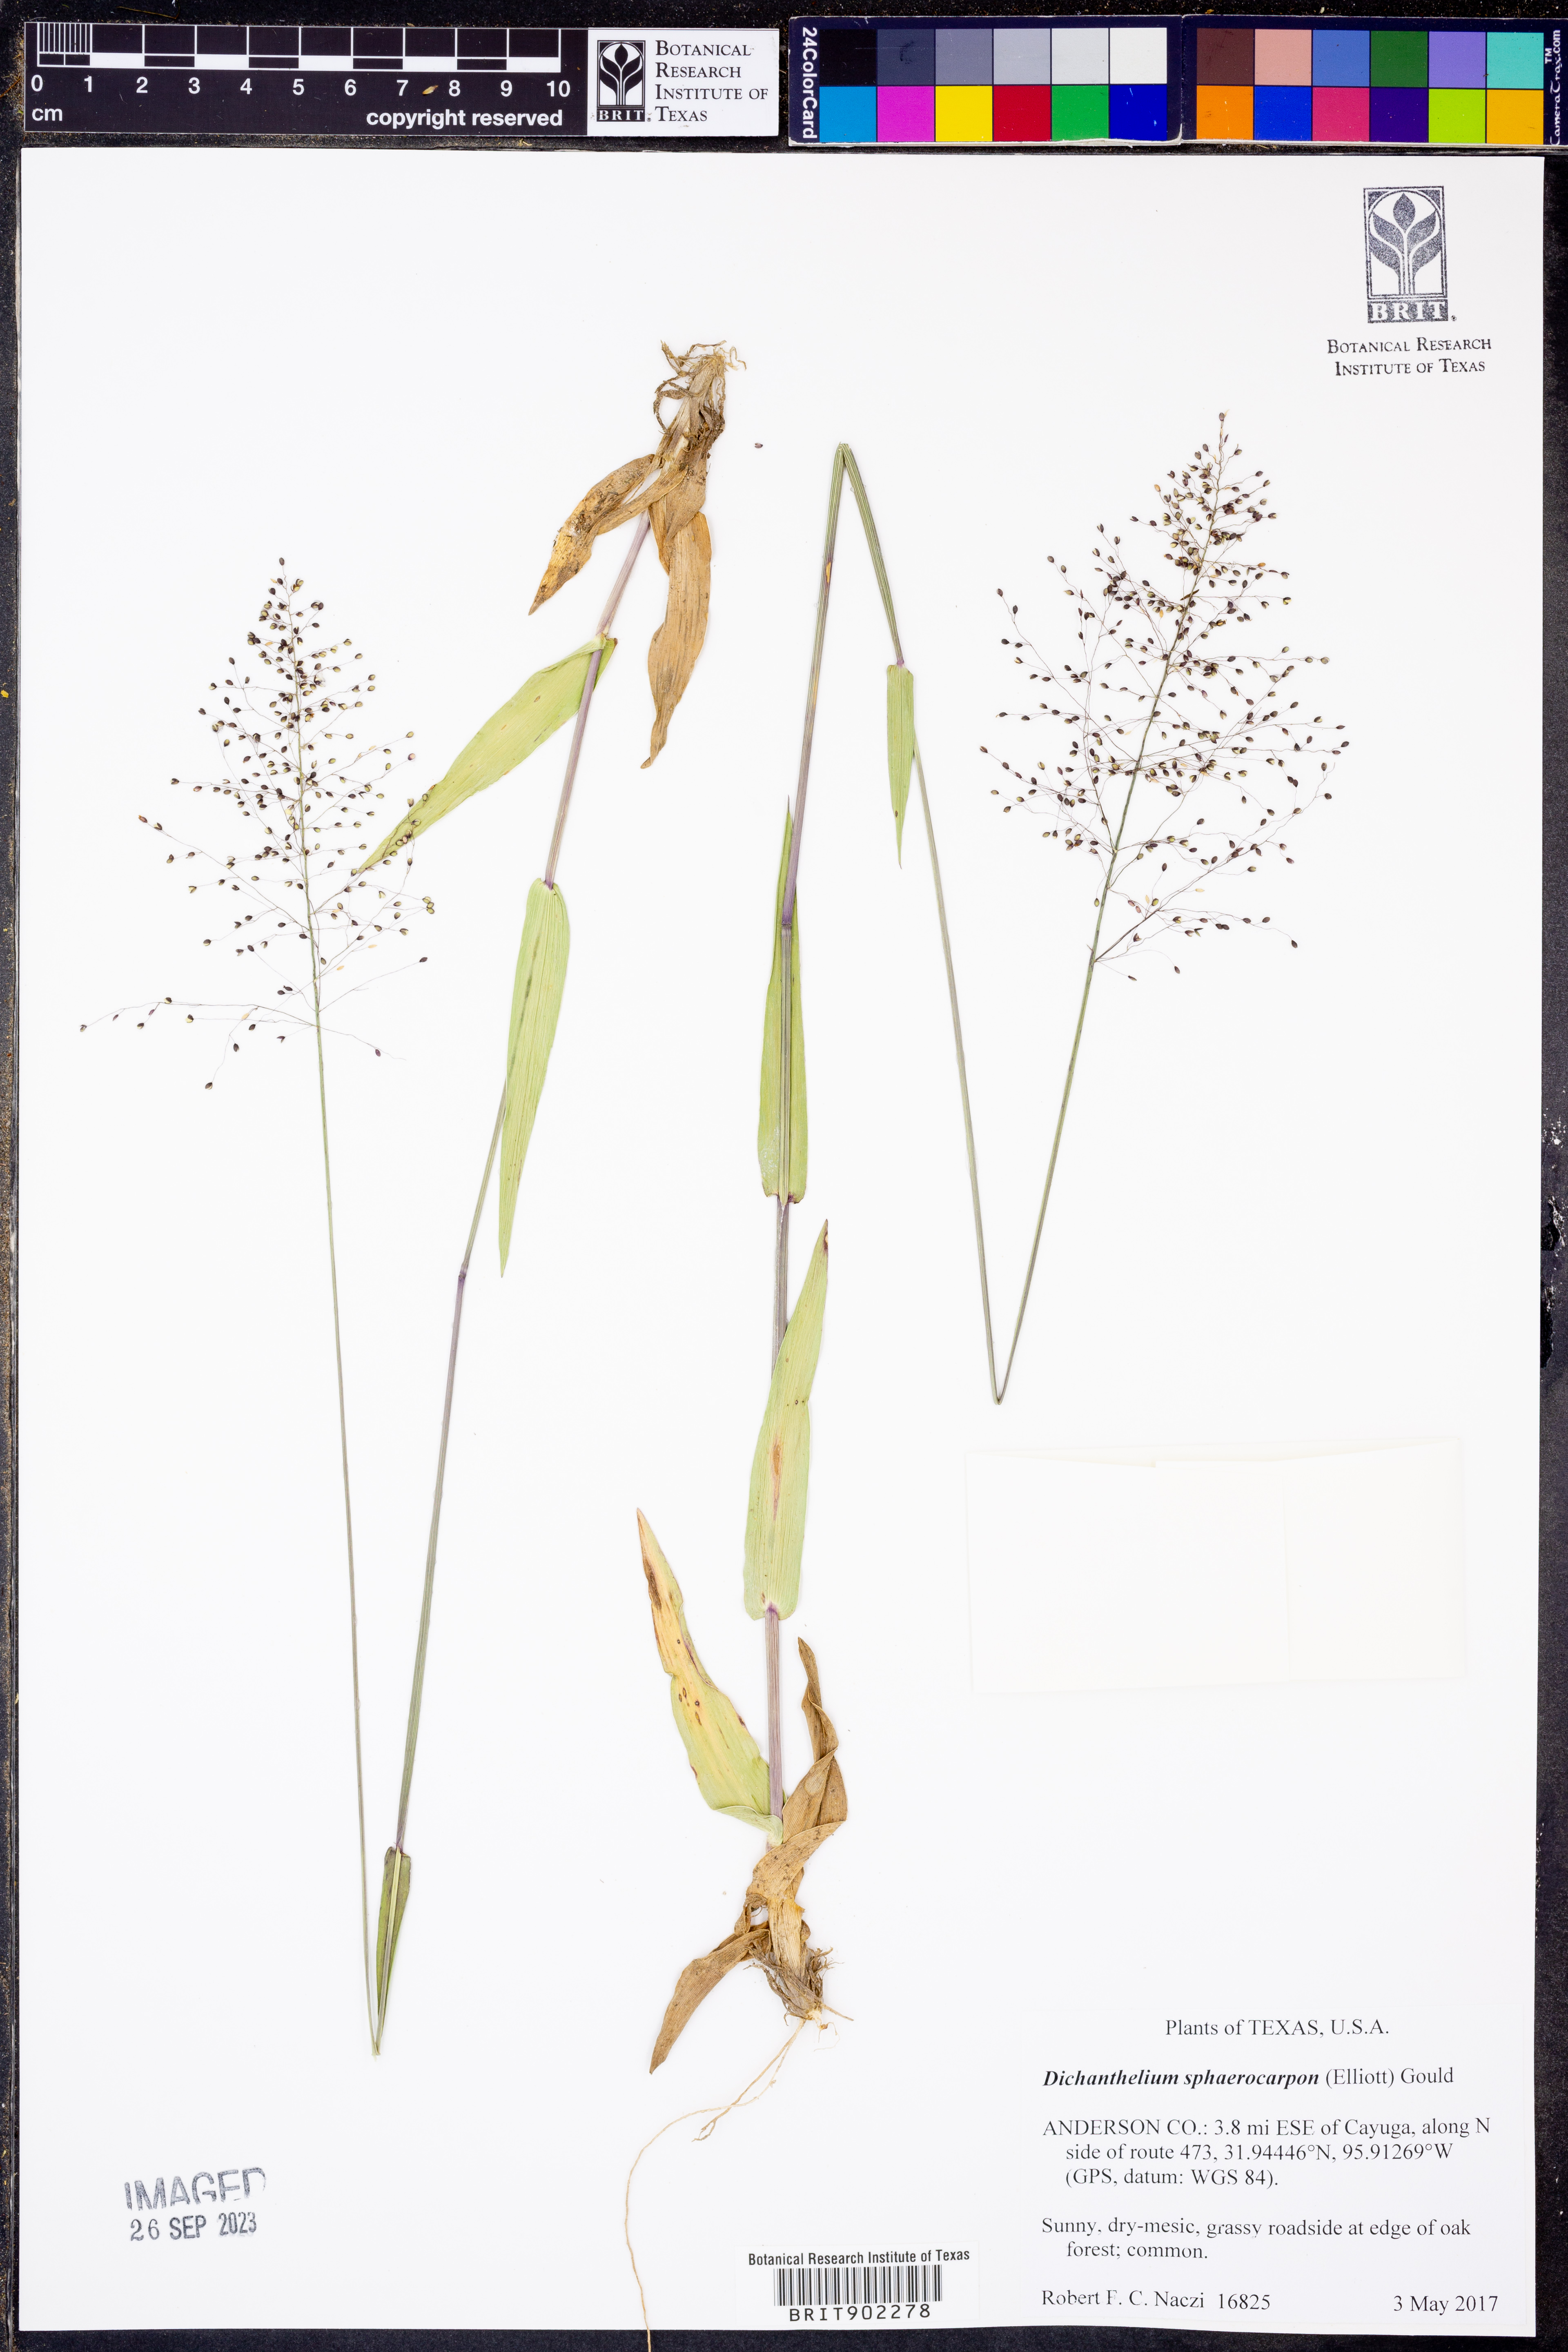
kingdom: Plantae
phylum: Tracheophyta
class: Liliopsida
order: Poales
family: Poaceae
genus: Dichanthelium
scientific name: Dichanthelium sphaerocarpon
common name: Round-fruited panicgrass
